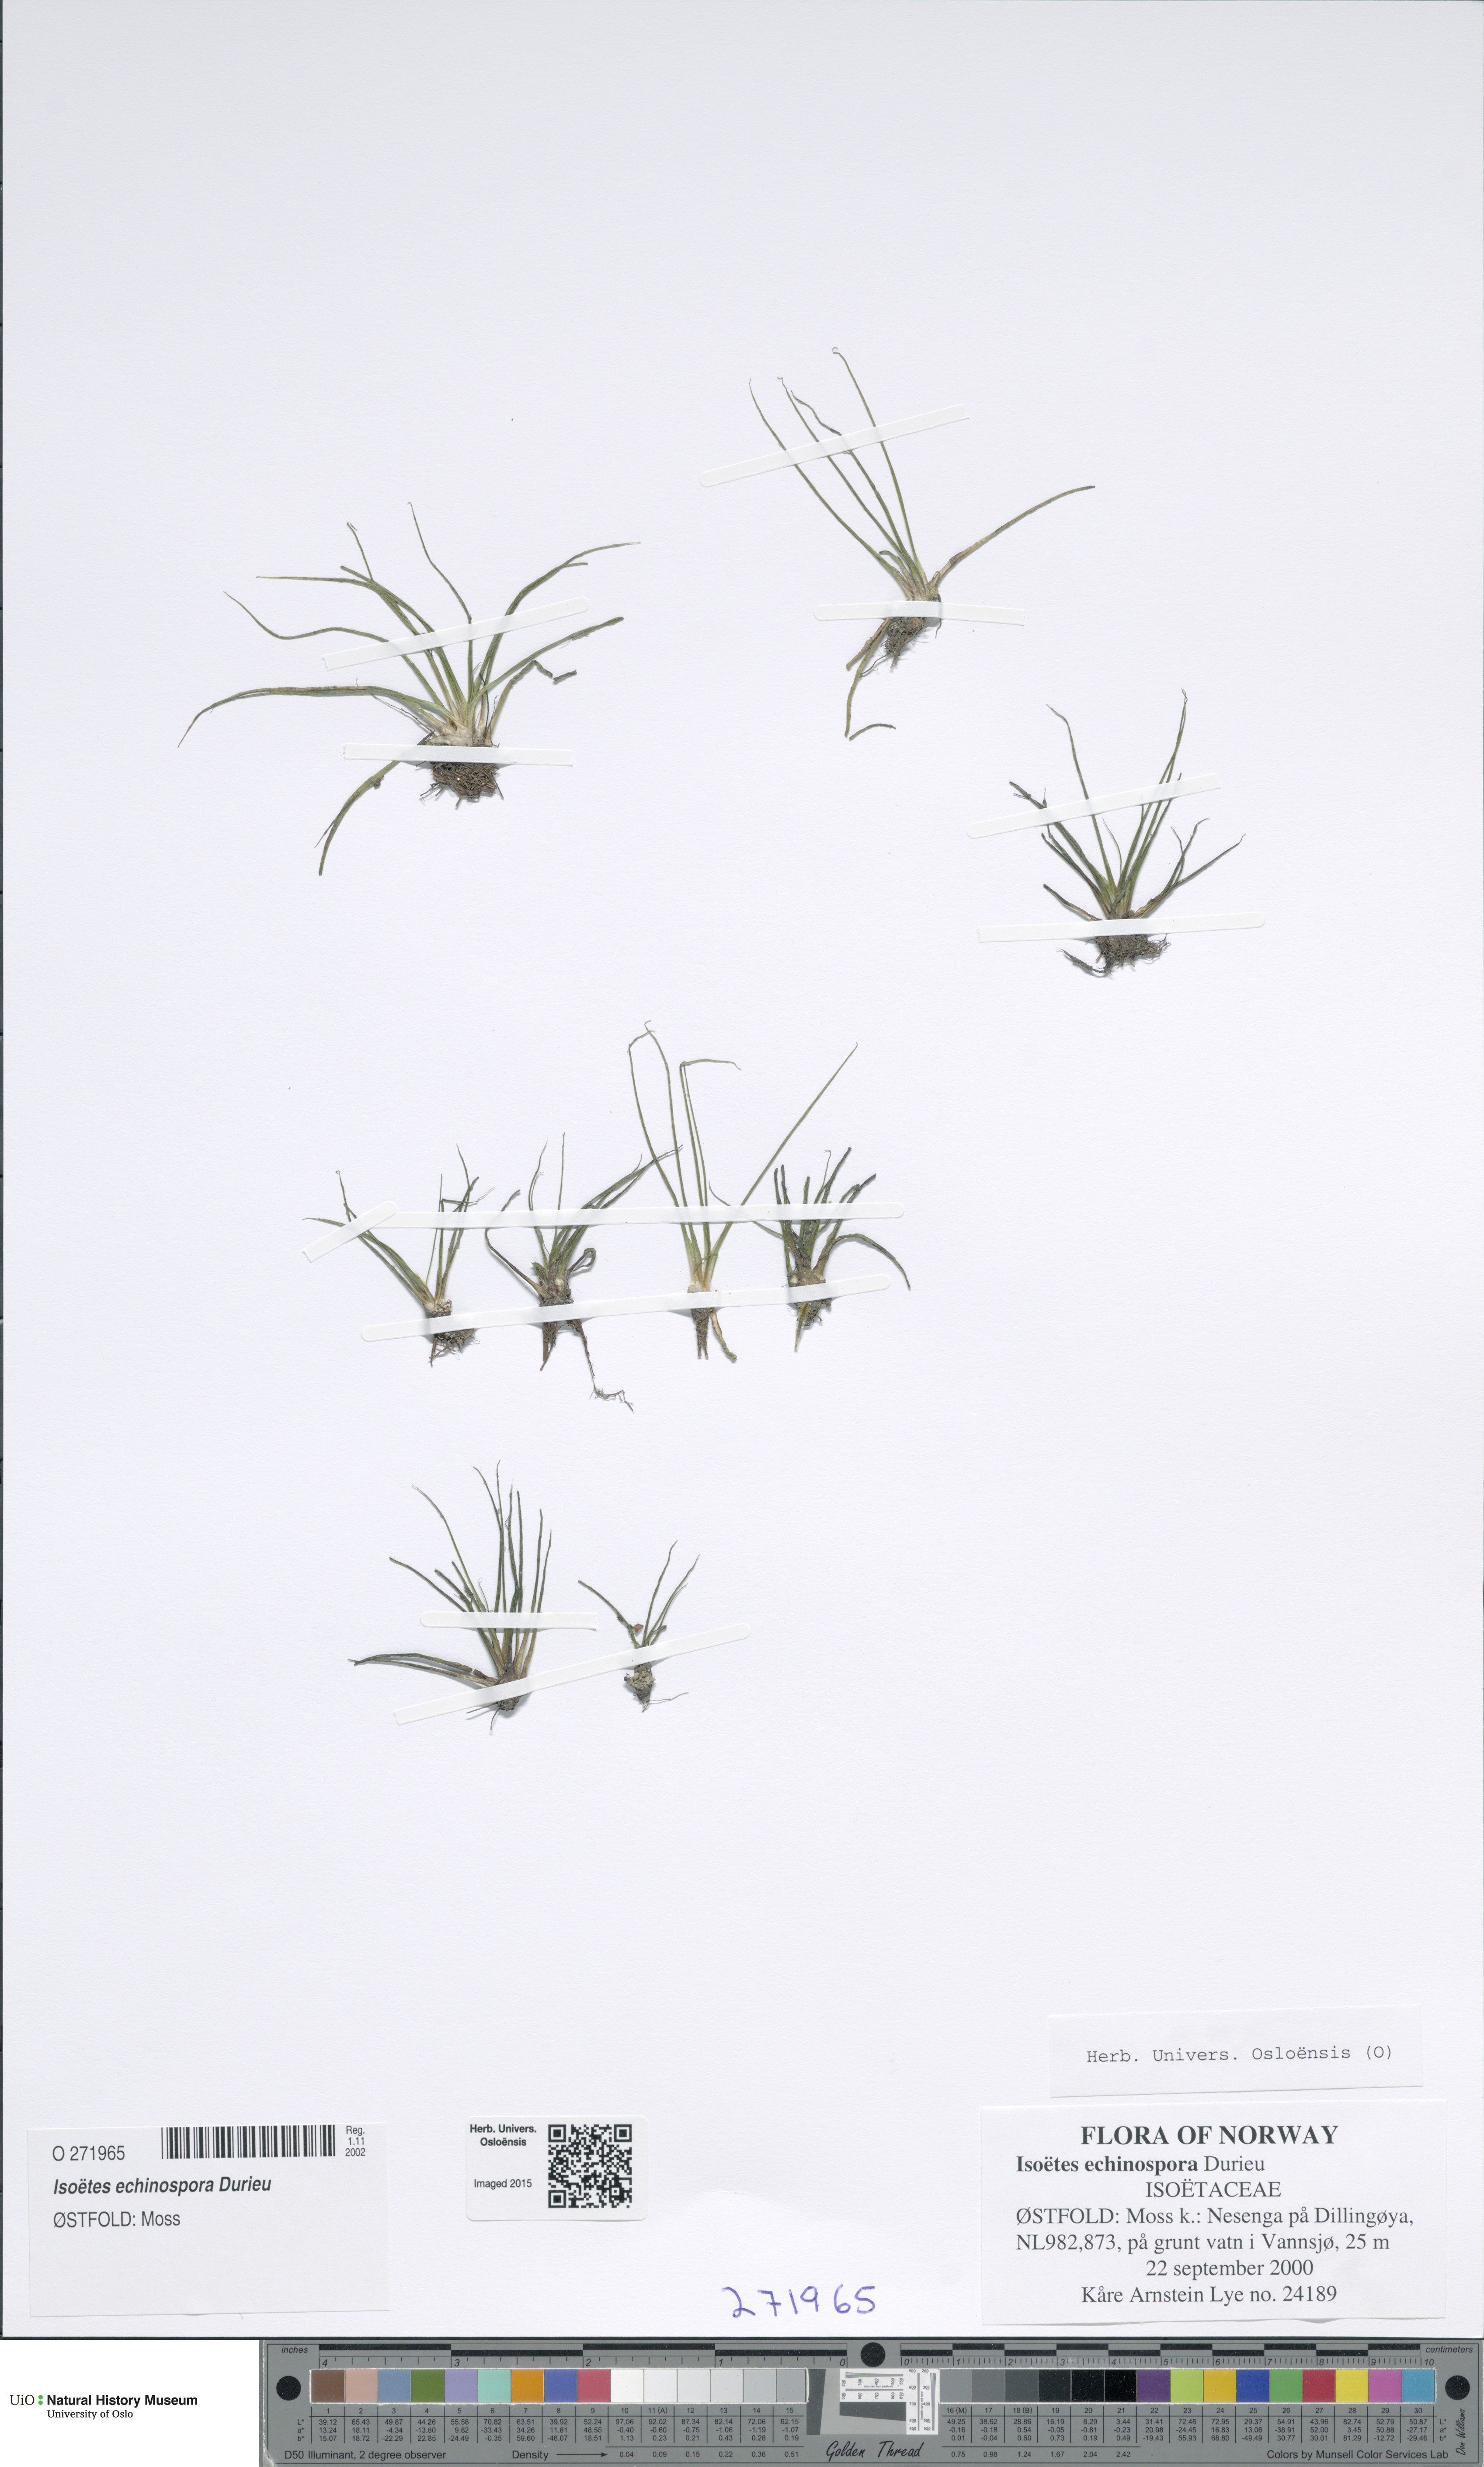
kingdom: Plantae
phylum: Tracheophyta
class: Lycopodiopsida
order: Isoetales
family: Isoetaceae
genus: Isoetes
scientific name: Isoetes echinospora
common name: Spring quillwort
